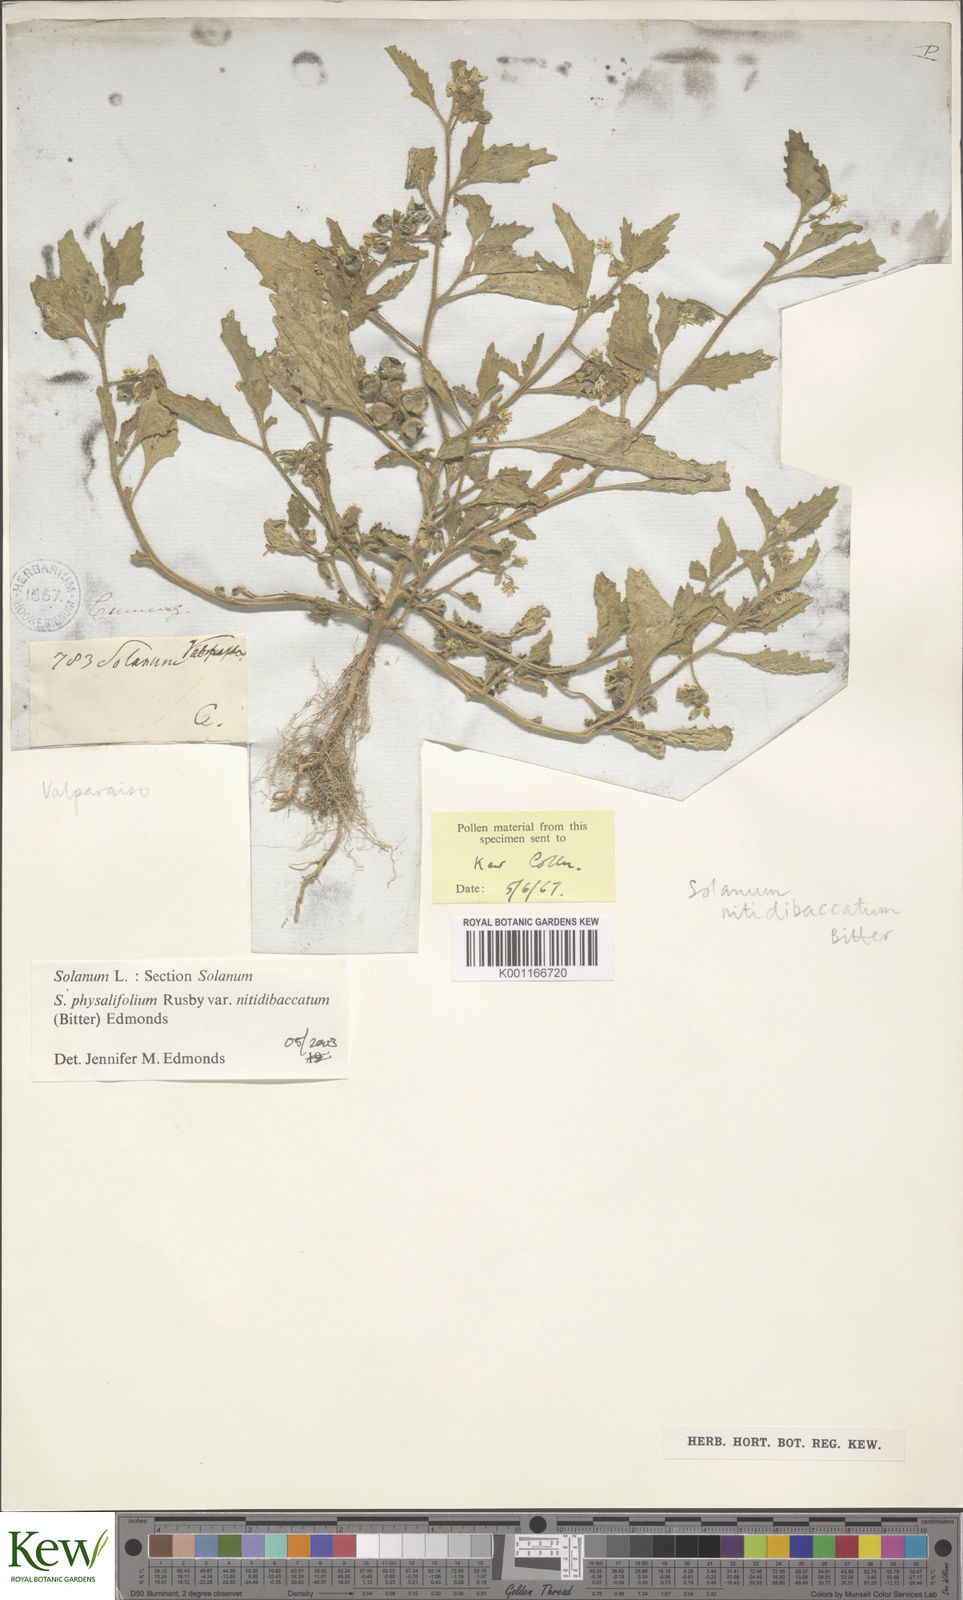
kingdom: Plantae
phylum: Tracheophyta
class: Magnoliopsida
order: Solanales
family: Solanaceae
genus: Solanum
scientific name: Solanum nitidibaccatum
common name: Hairy nightshade
